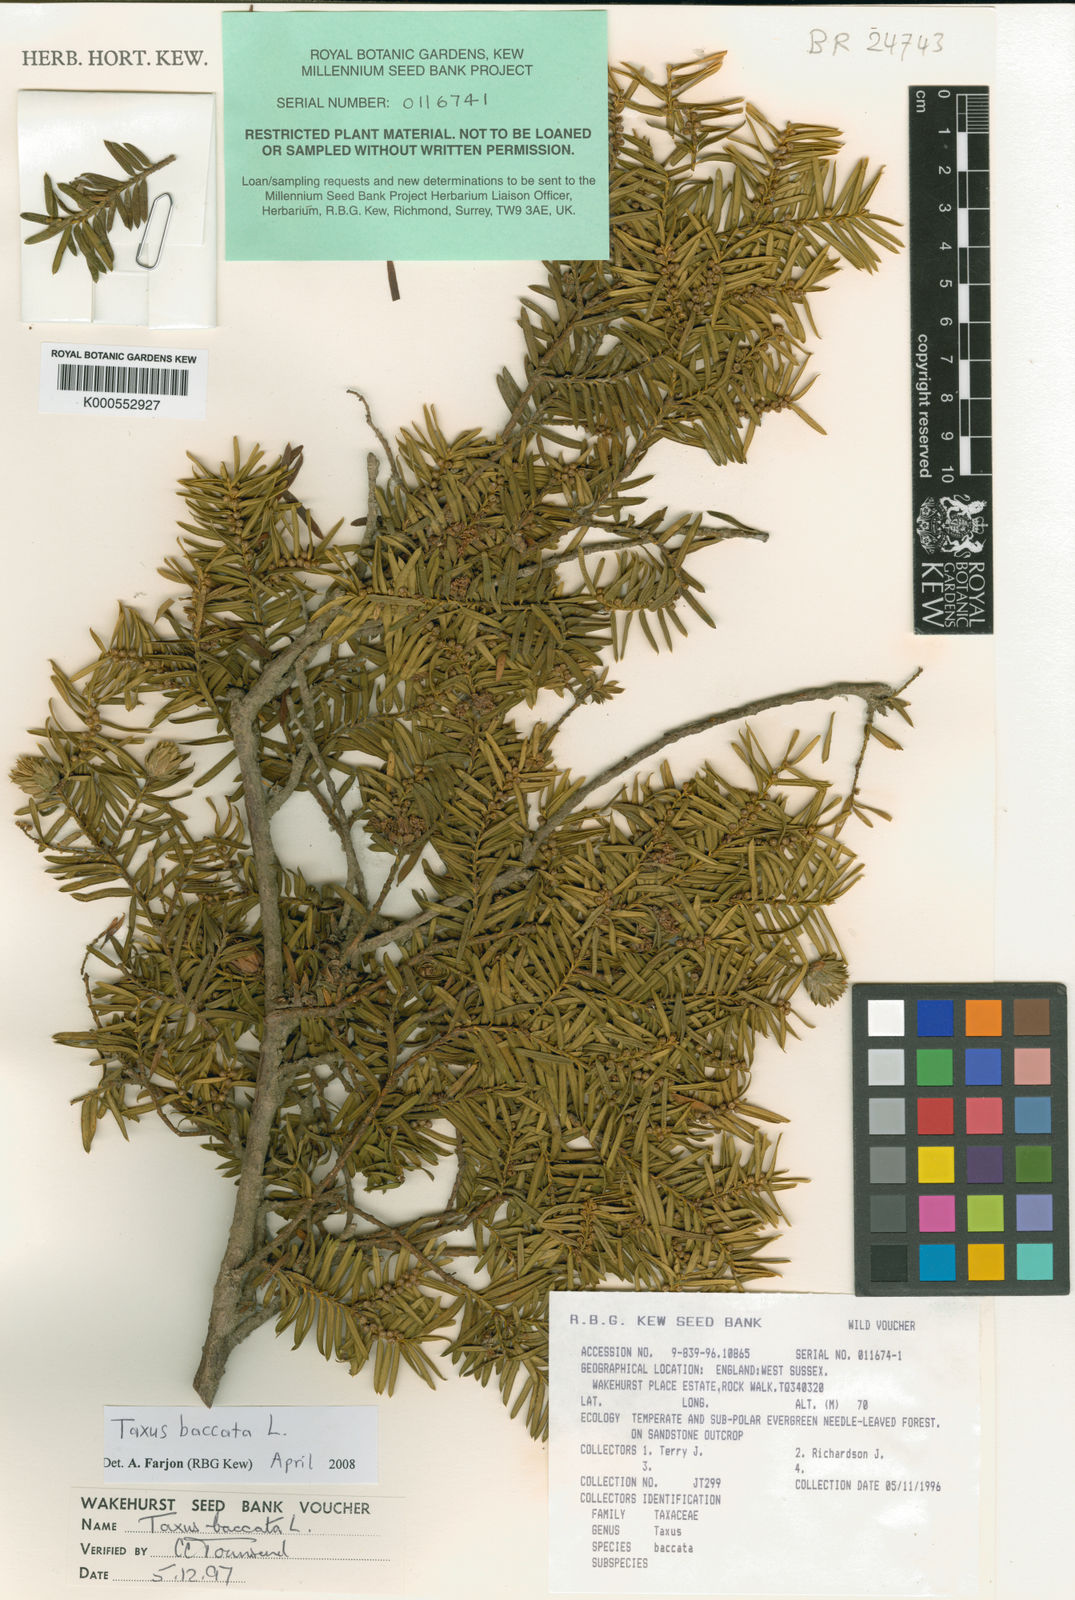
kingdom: Plantae
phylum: Tracheophyta
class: Pinopsida
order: Pinales
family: Taxaceae
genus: Taxus
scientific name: Taxus baccata
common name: Yew
